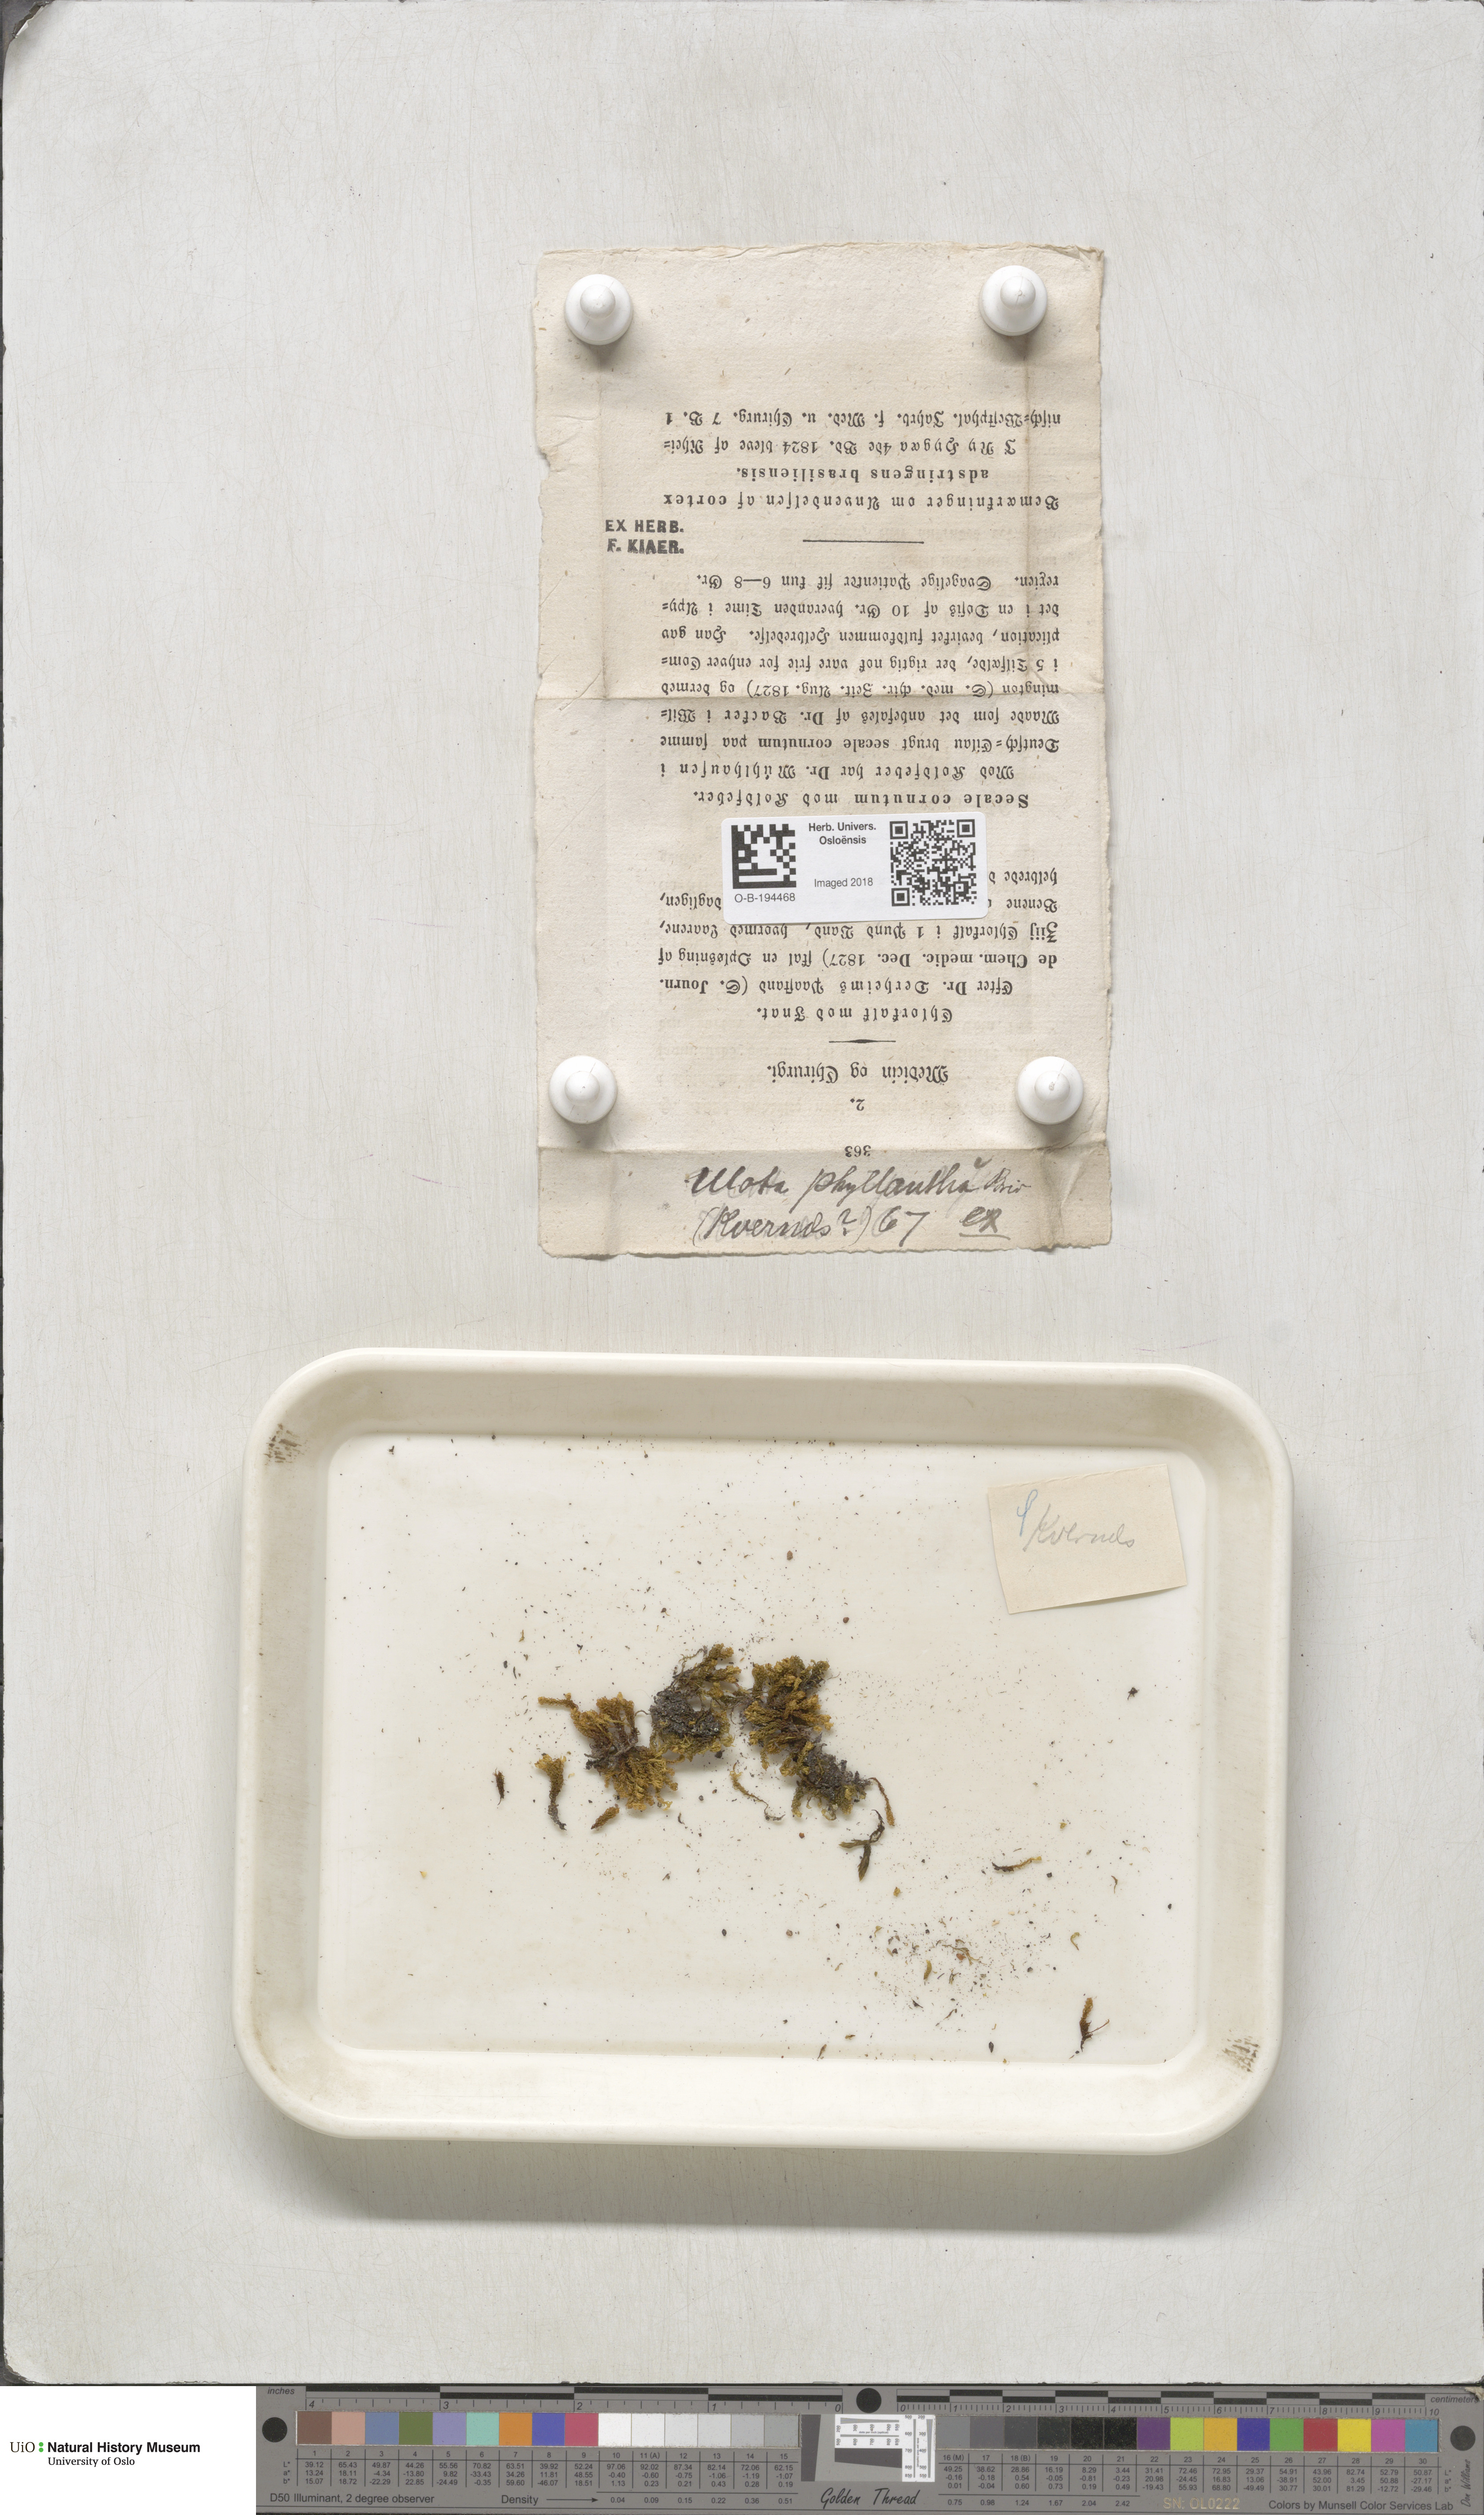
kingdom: Plantae
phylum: Bryophyta
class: Bryopsida
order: Orthotrichales
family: Orthotrichaceae
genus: Plenogemma
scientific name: Plenogemma phyllantha
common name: Frizzled pincushion
